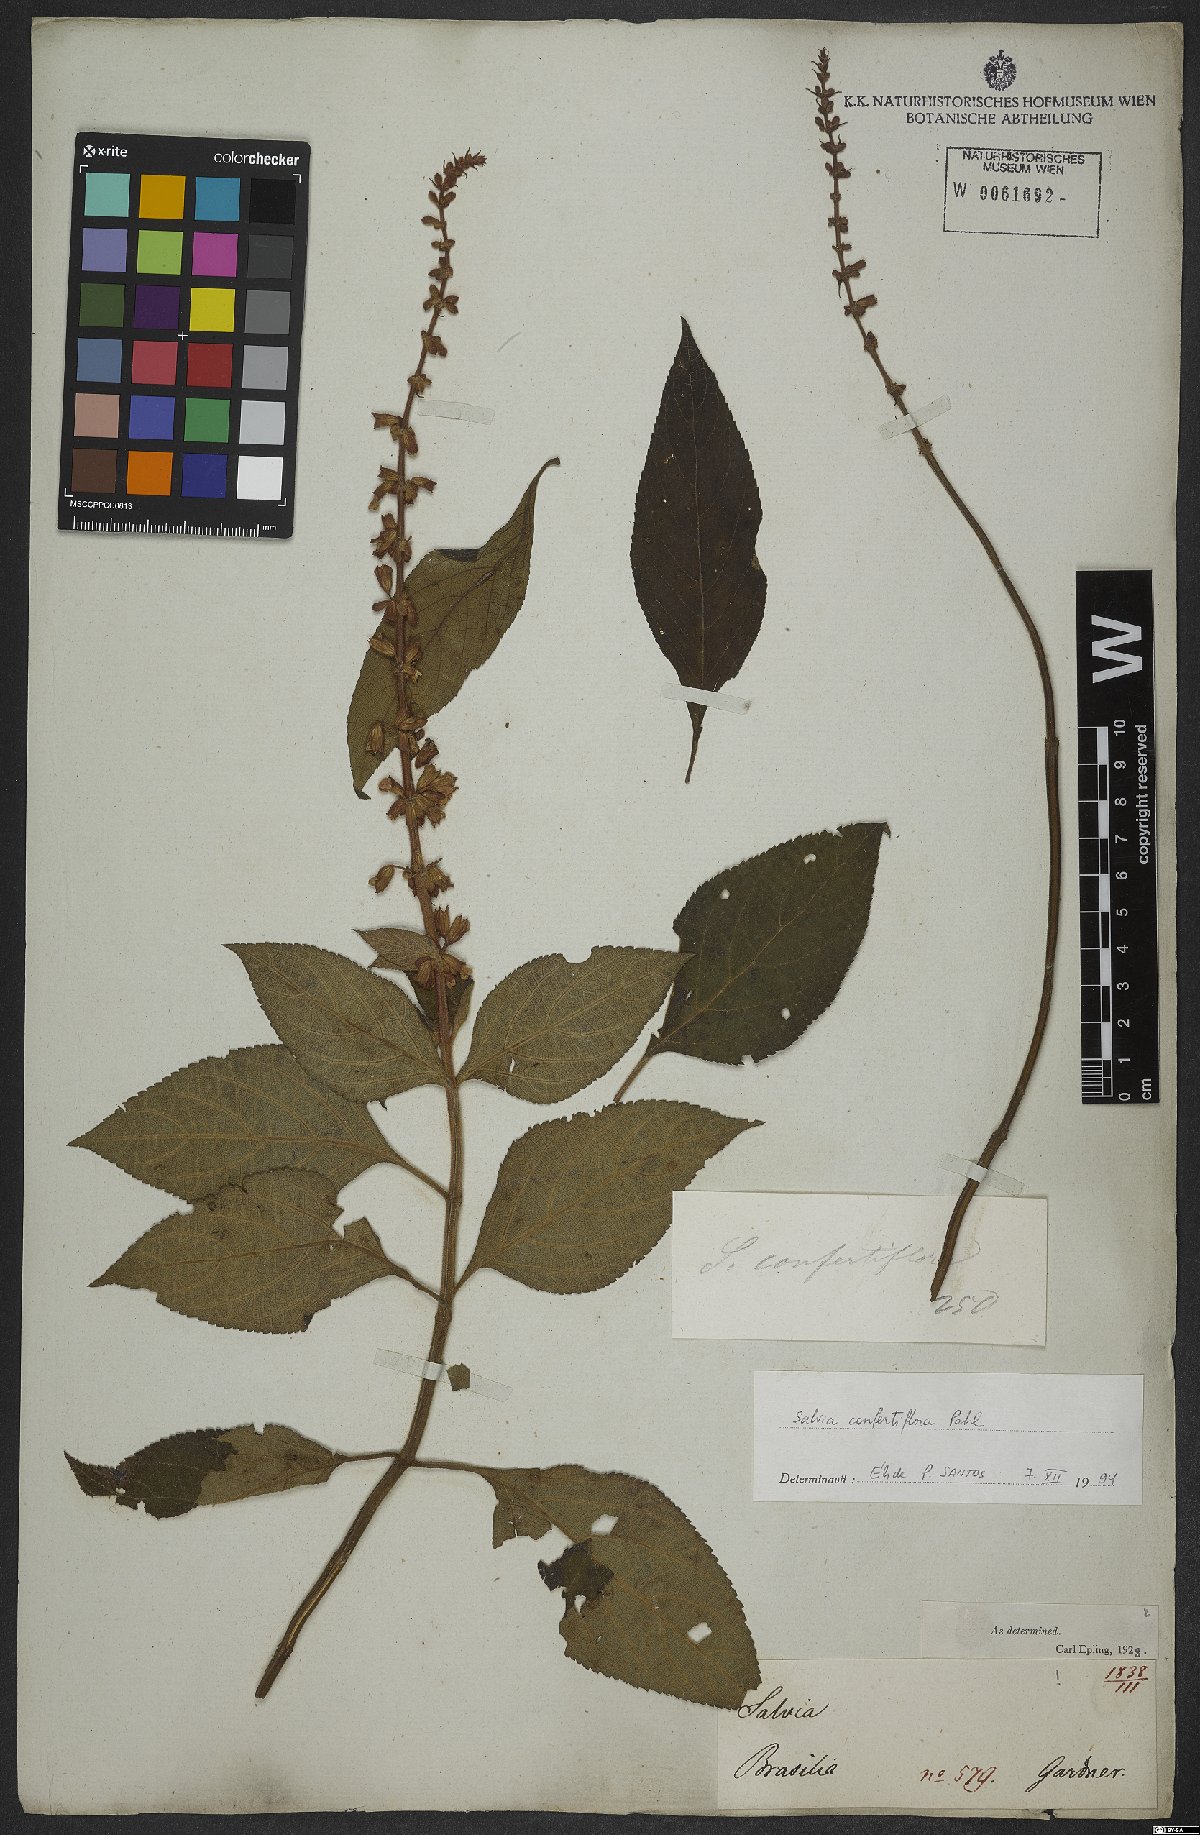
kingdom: Plantae
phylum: Tracheophyta
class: Magnoliopsida
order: Lamiales
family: Lamiaceae
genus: Salvia
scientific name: Salvia confertiflora
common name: Sabra-spike sage
